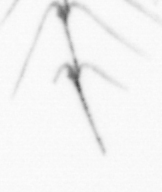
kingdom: Chromista
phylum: Myzozoa
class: Dinophyceae
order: Gonyaulacales
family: Ceratiaceae
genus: Ceratium
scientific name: Ceratium
